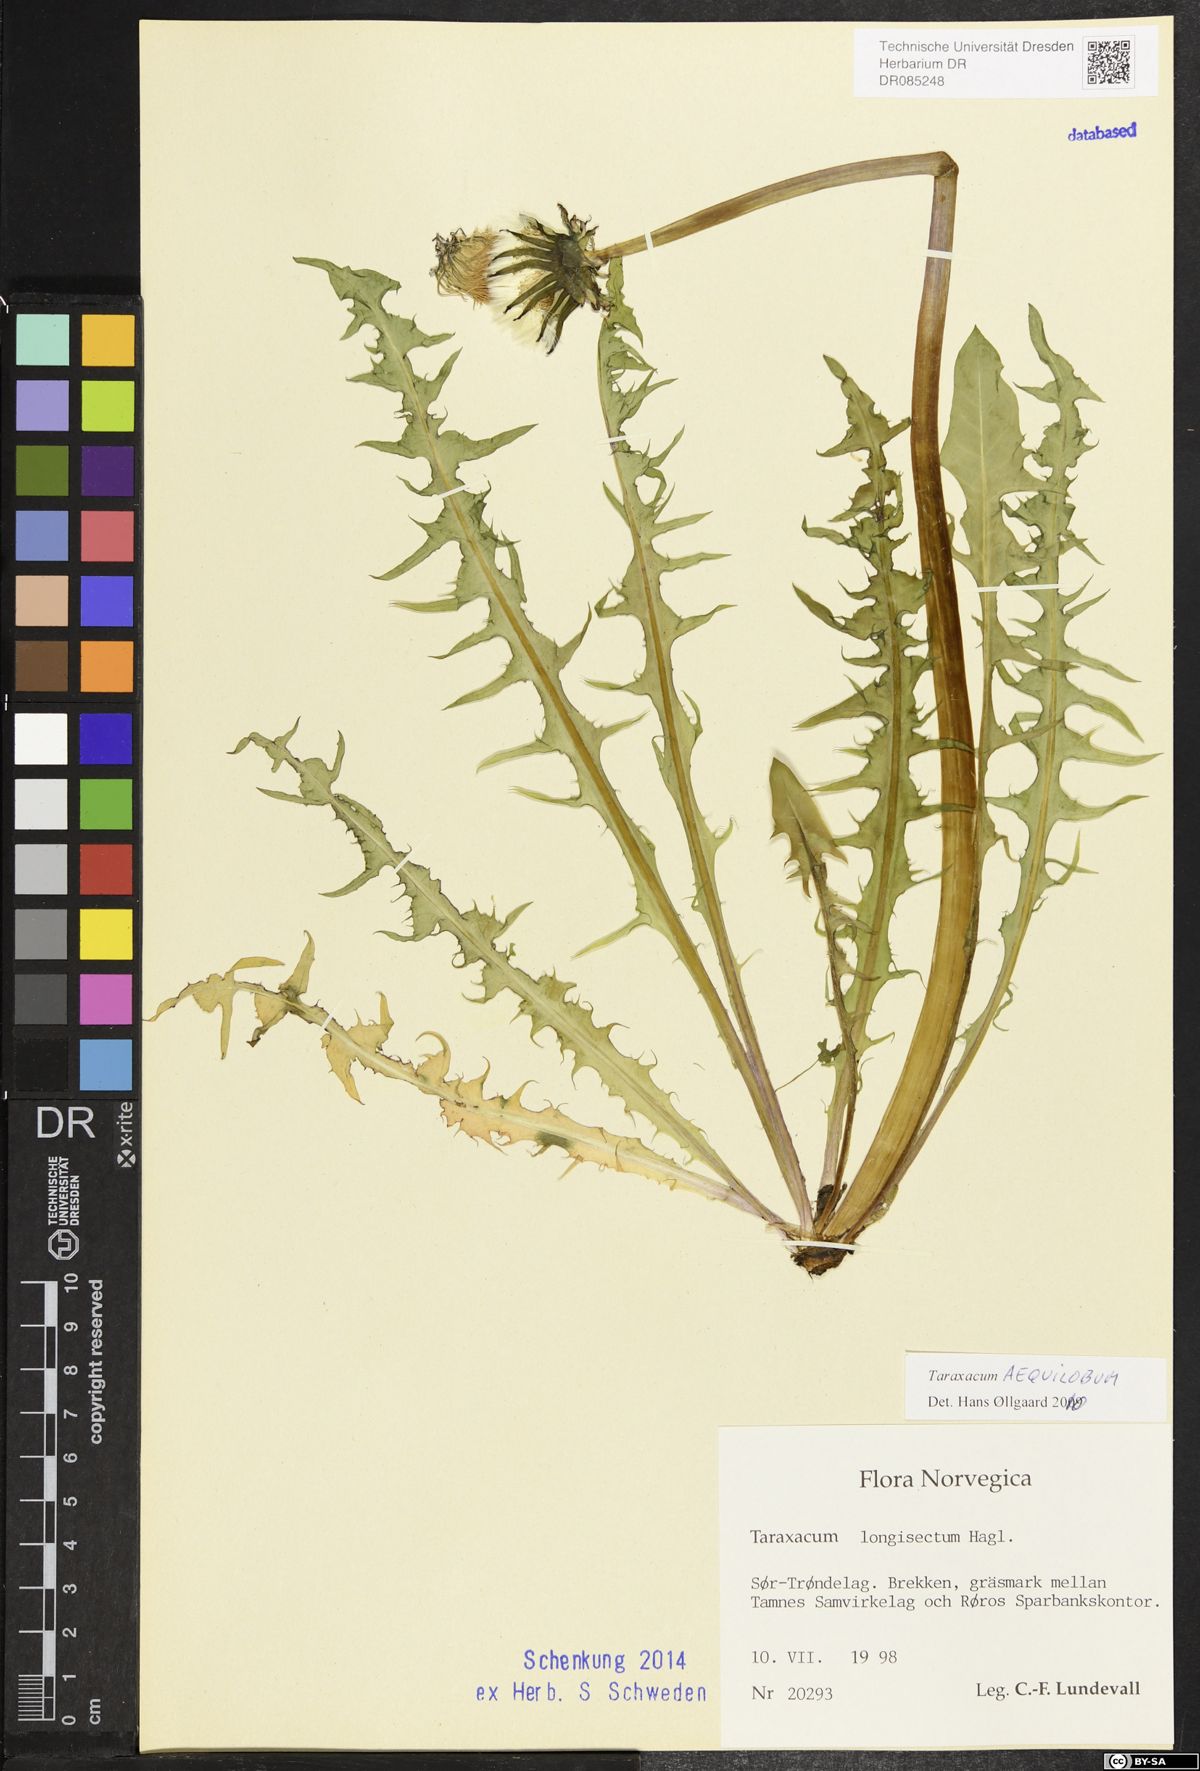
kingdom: Plantae
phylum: Tracheophyta
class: Magnoliopsida
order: Asterales
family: Asteraceae
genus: Taraxacum
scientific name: Taraxacum aequilobum
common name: Twisted-bracted dandelion
